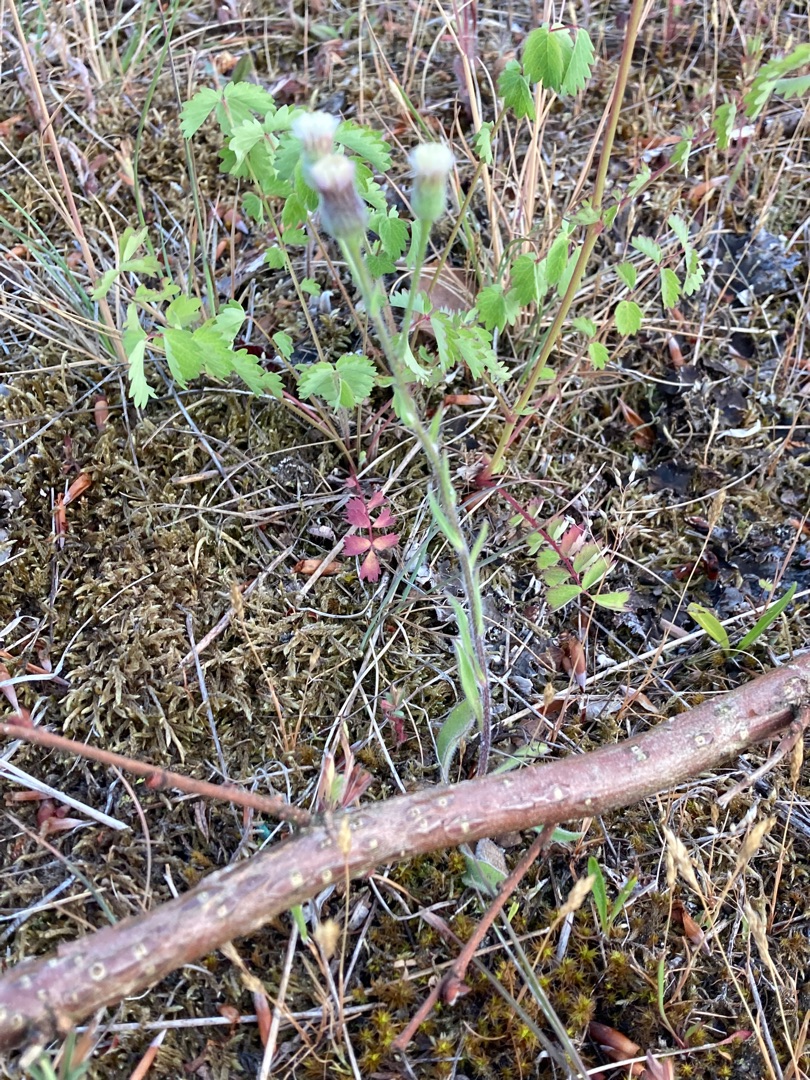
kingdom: Plantae
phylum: Tracheophyta
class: Magnoliopsida
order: Asterales
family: Asteraceae
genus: Erigeron
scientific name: Erigeron acris
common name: Bitter bakkestjerne
